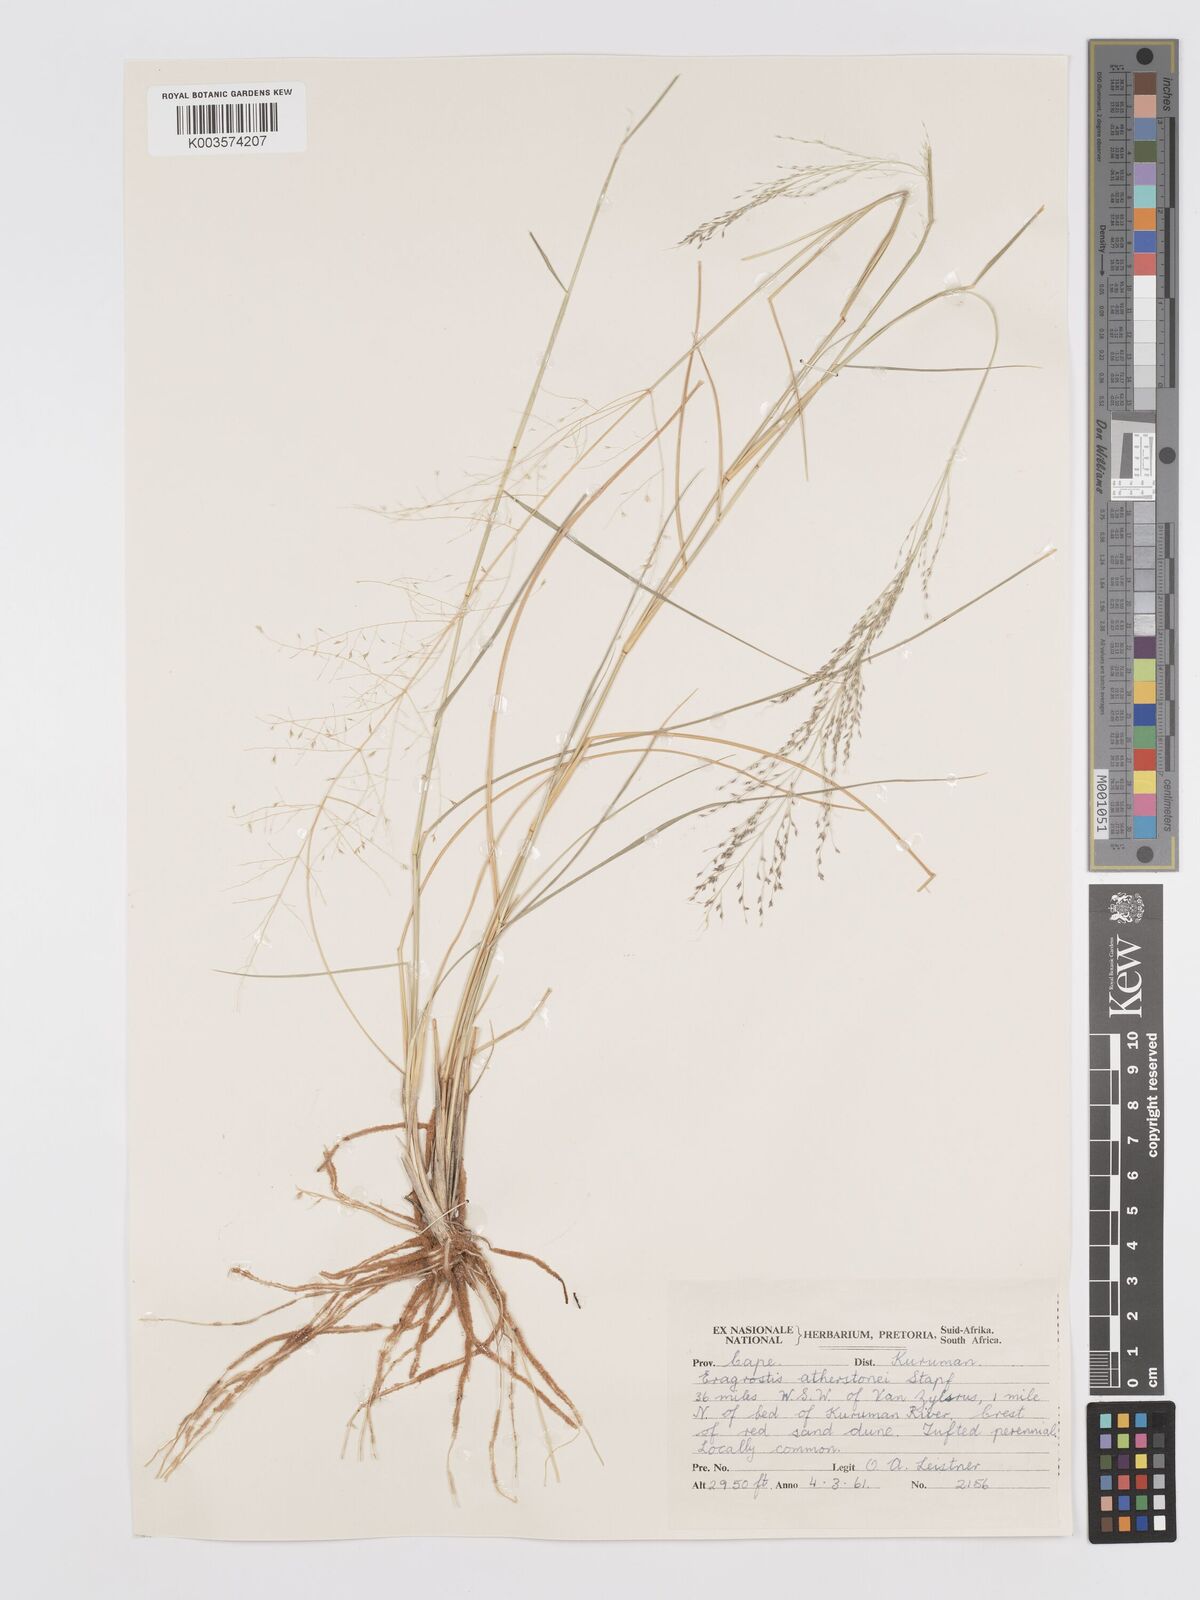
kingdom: Plantae
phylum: Tracheophyta
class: Liliopsida
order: Poales
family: Poaceae
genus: Eragrostis
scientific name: Eragrostis cylindriflora
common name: Cylinderflower lovegrass
